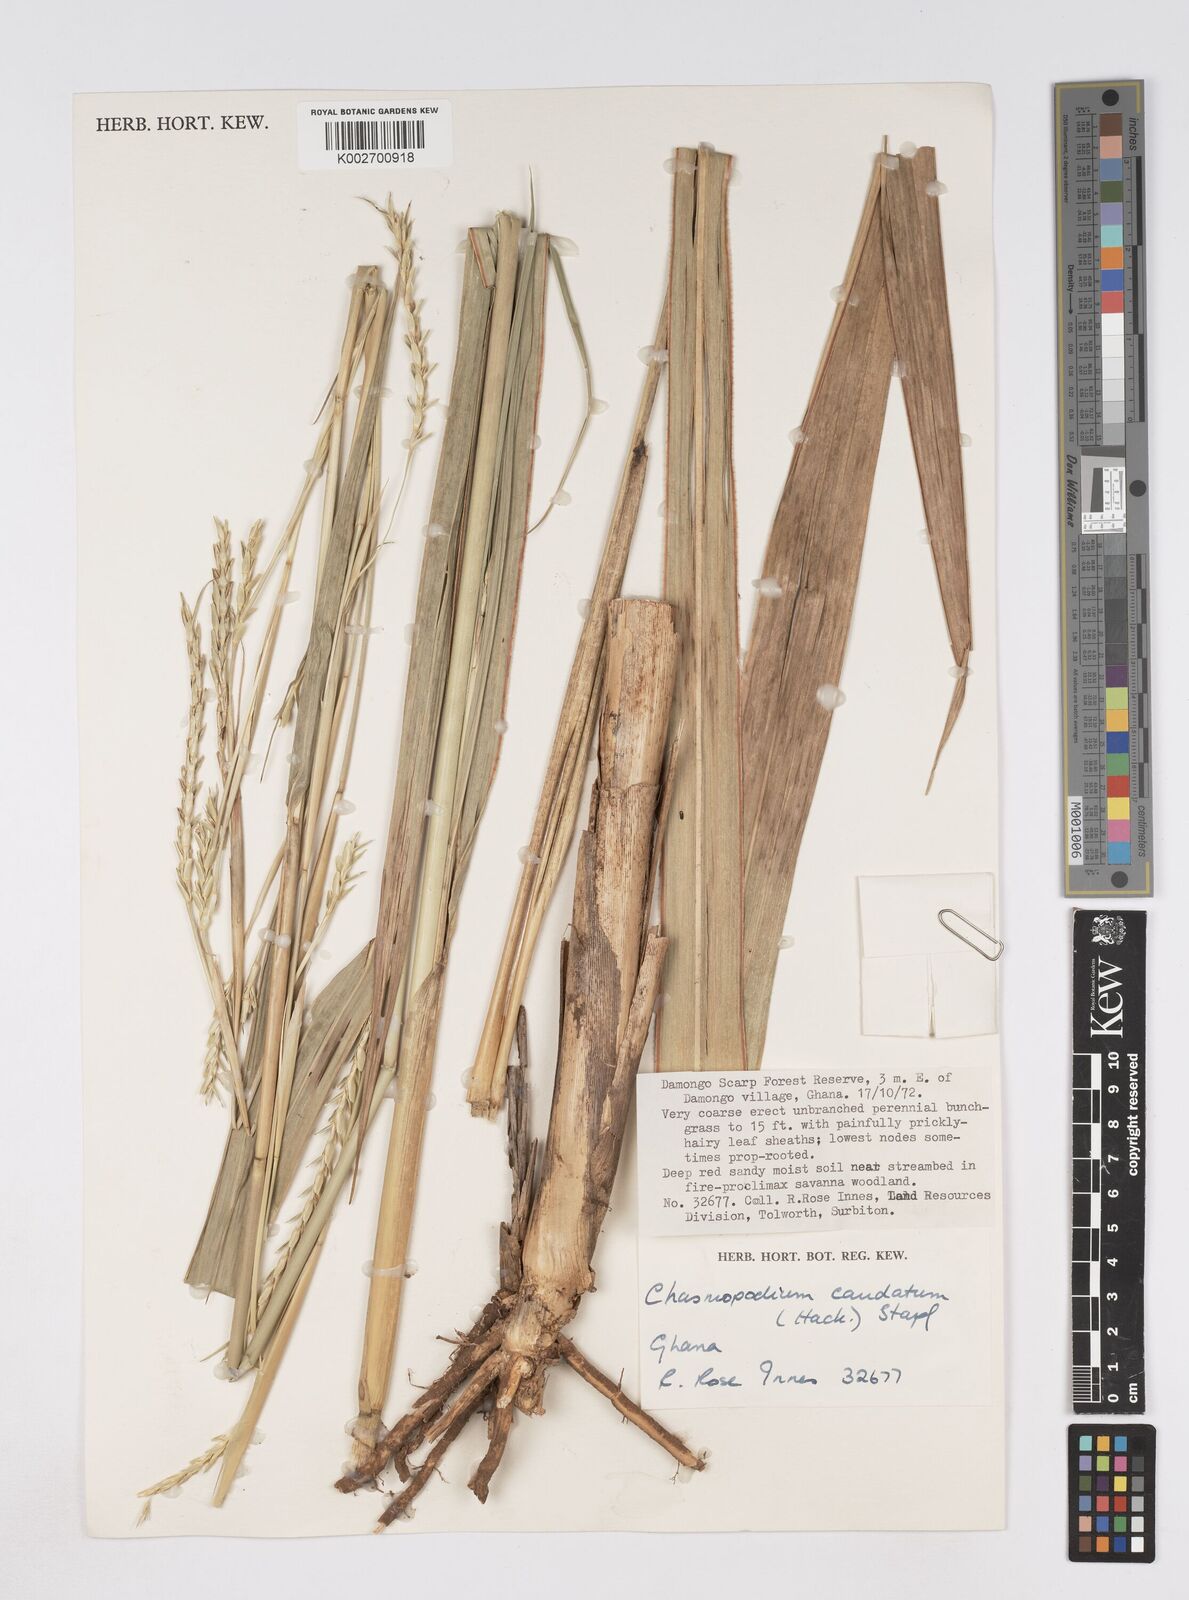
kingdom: Plantae
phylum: Tracheophyta
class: Liliopsida
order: Poales
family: Poaceae
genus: Chasmopodium
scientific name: Chasmopodium caudatum
